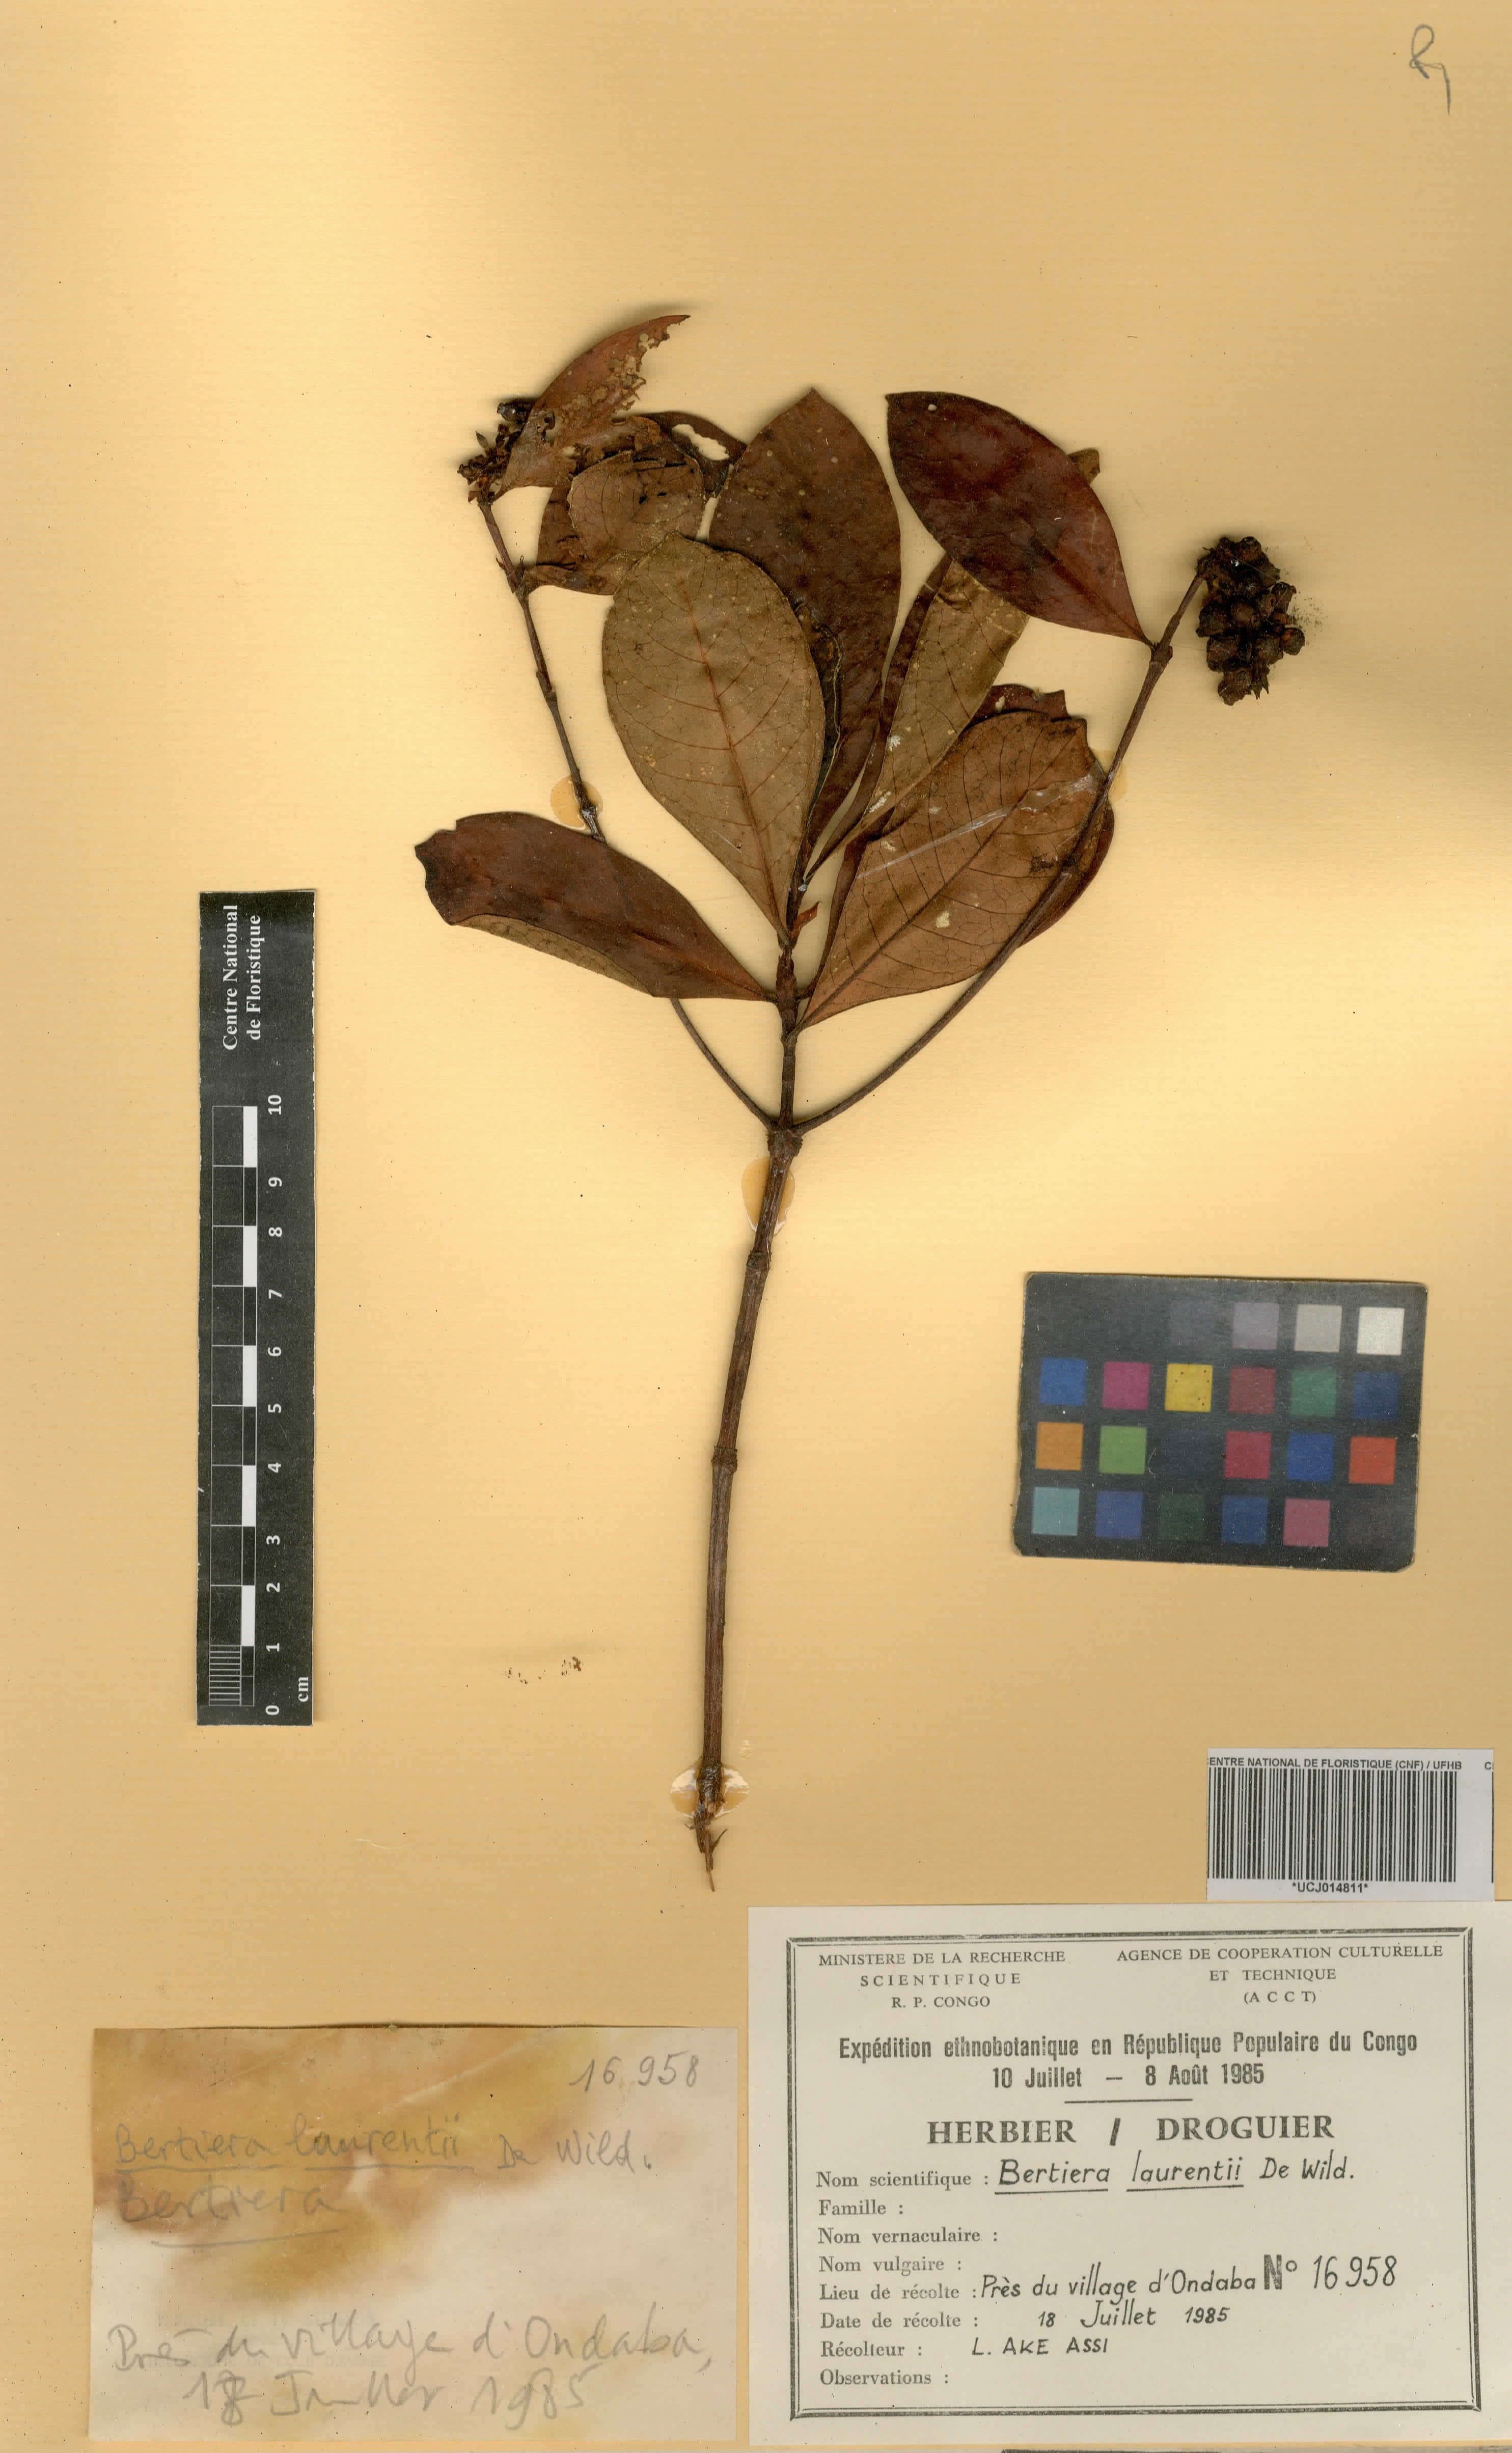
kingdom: Plantae
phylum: Tracheophyta
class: Magnoliopsida
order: Gentianales
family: Rubiaceae
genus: Bertiera
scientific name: Bertiera laurentii
